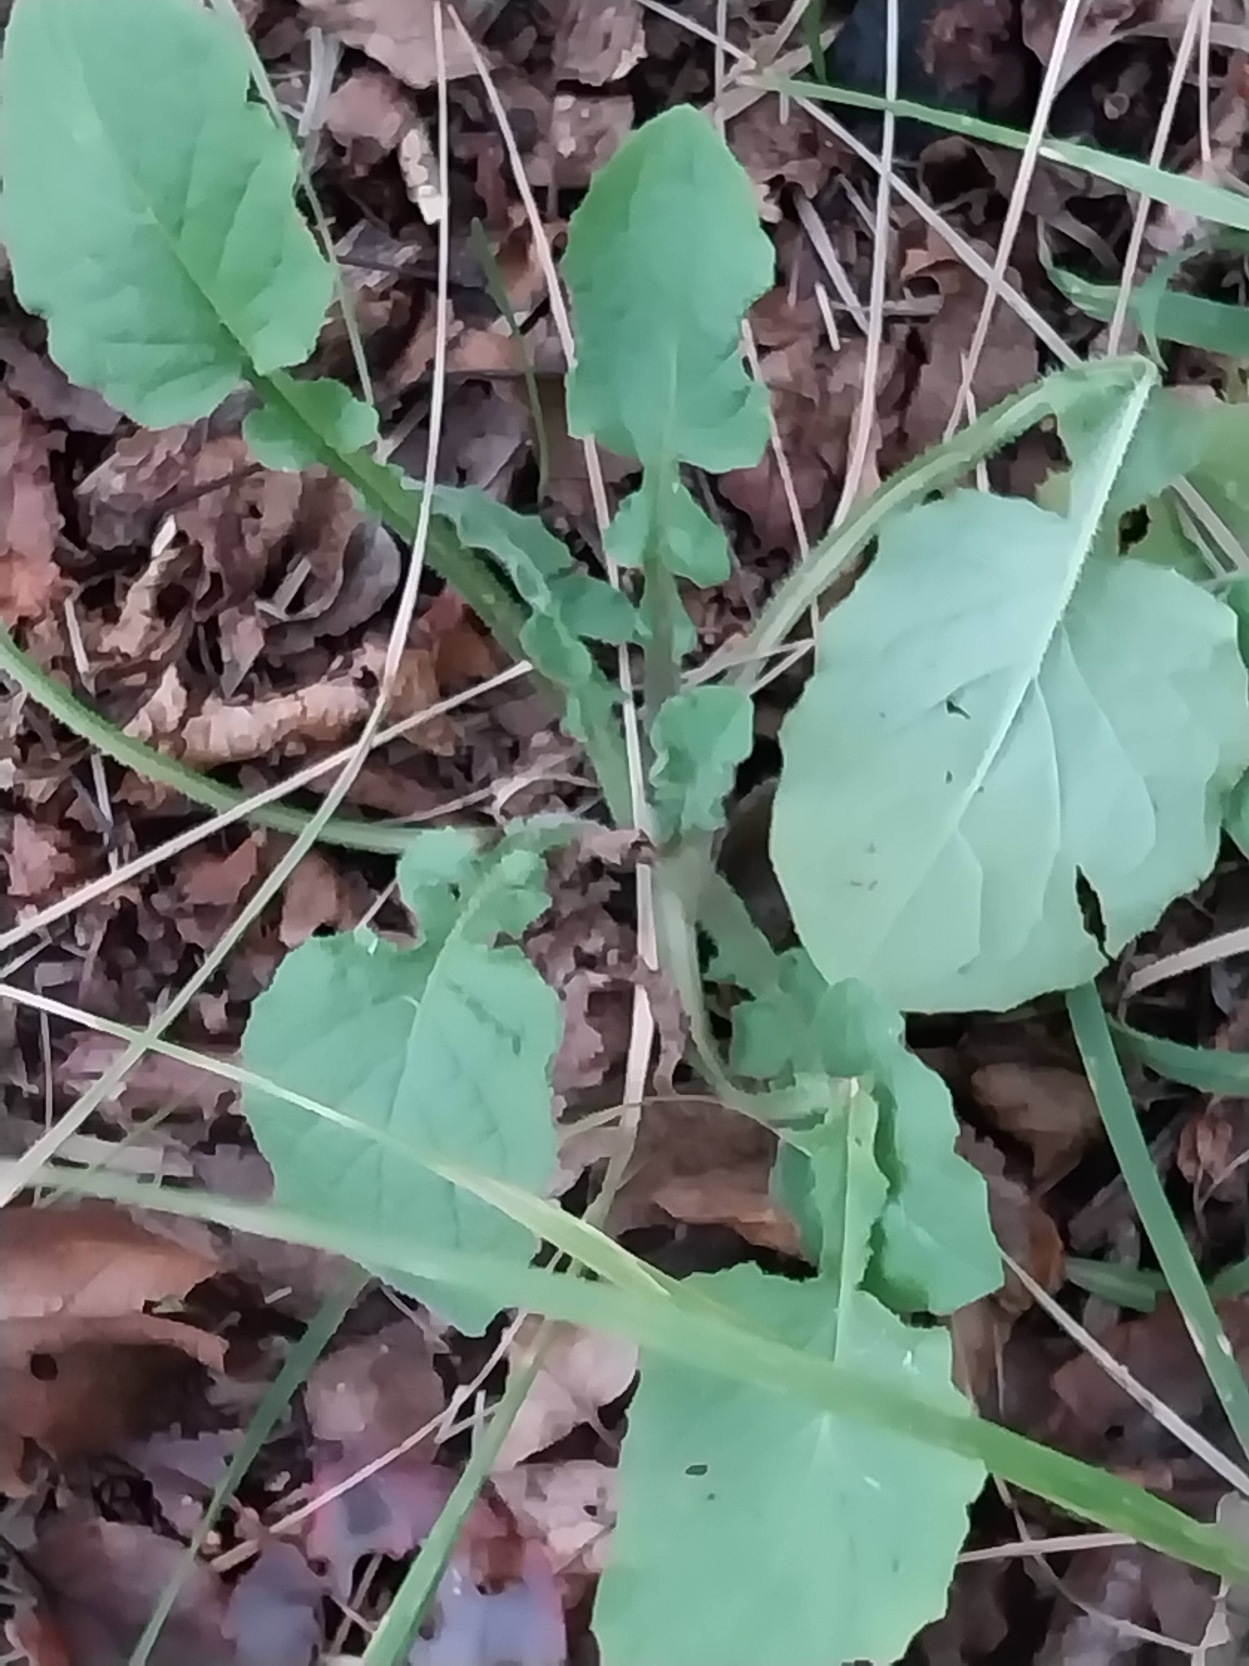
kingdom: Plantae
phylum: Tracheophyta
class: Magnoliopsida
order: Asterales
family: Asteraceae
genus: Lapsana
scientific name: Lapsana communis
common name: Haremad
